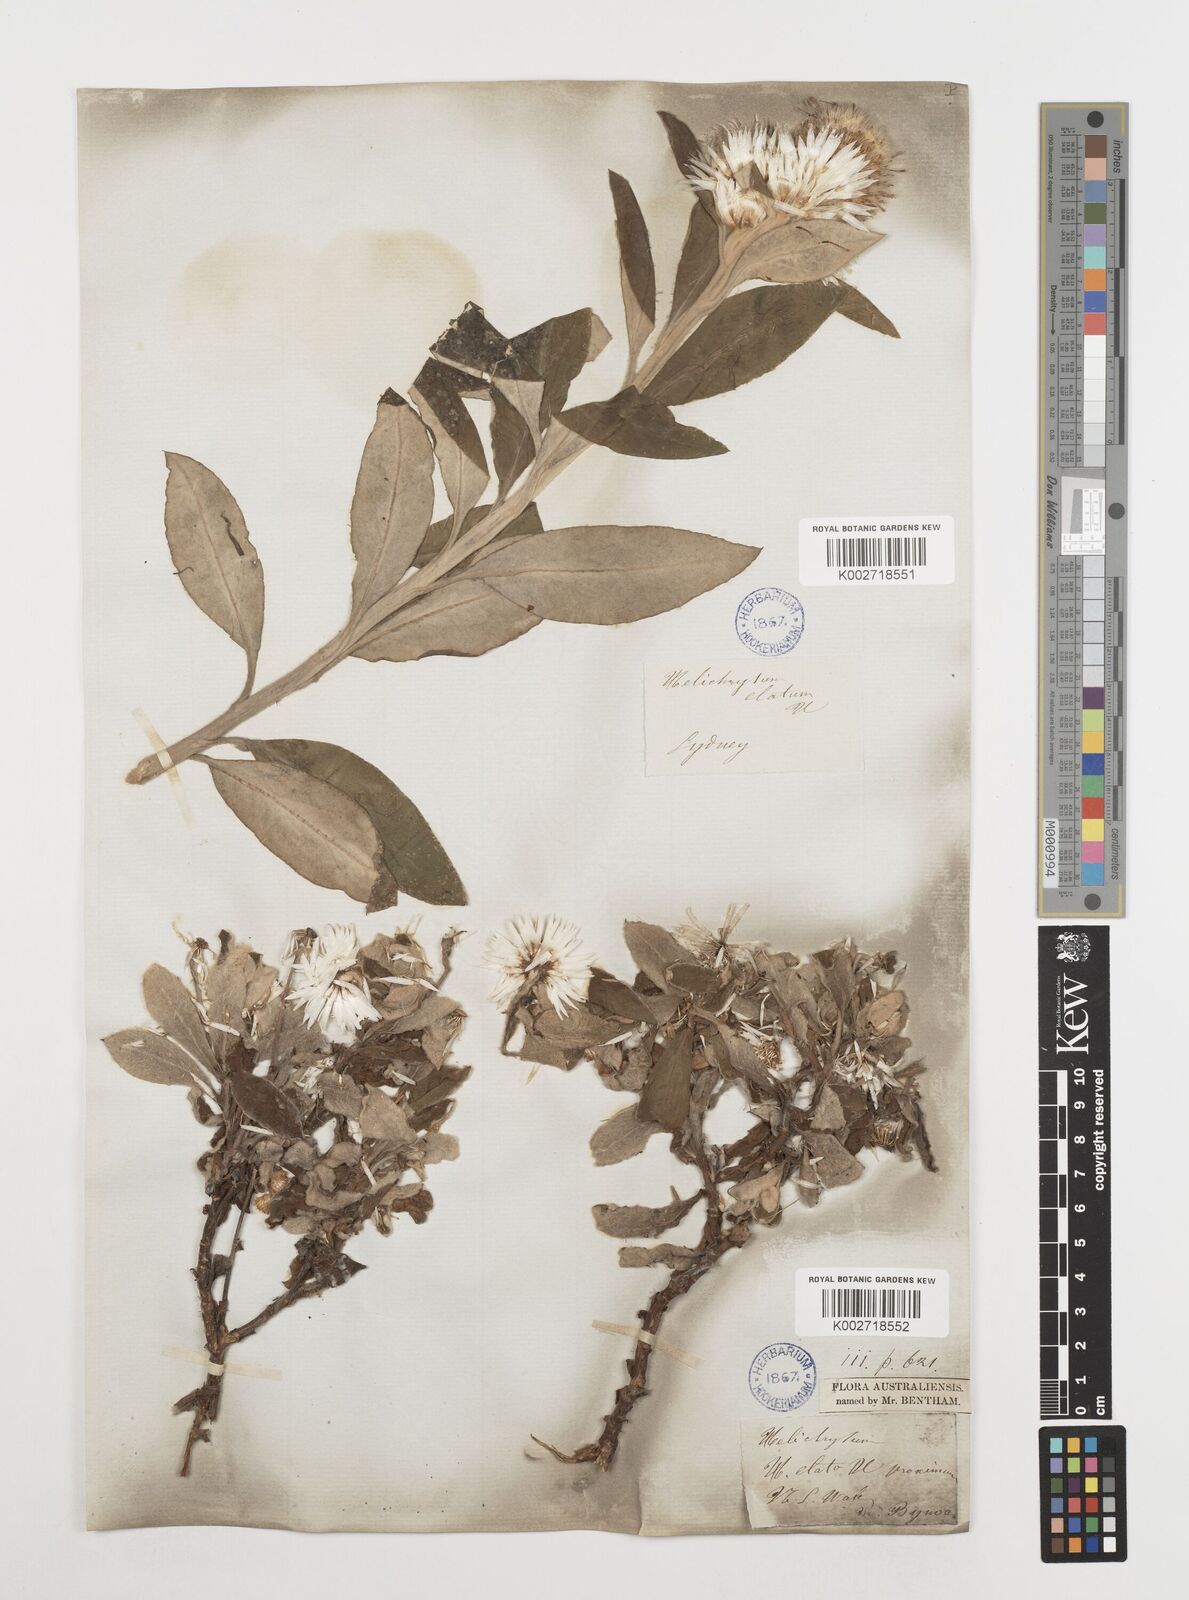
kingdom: Plantae
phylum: Tracheophyta
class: Magnoliopsida
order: Asterales
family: Asteraceae
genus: Leucozoma
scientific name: Leucozoma elatum
